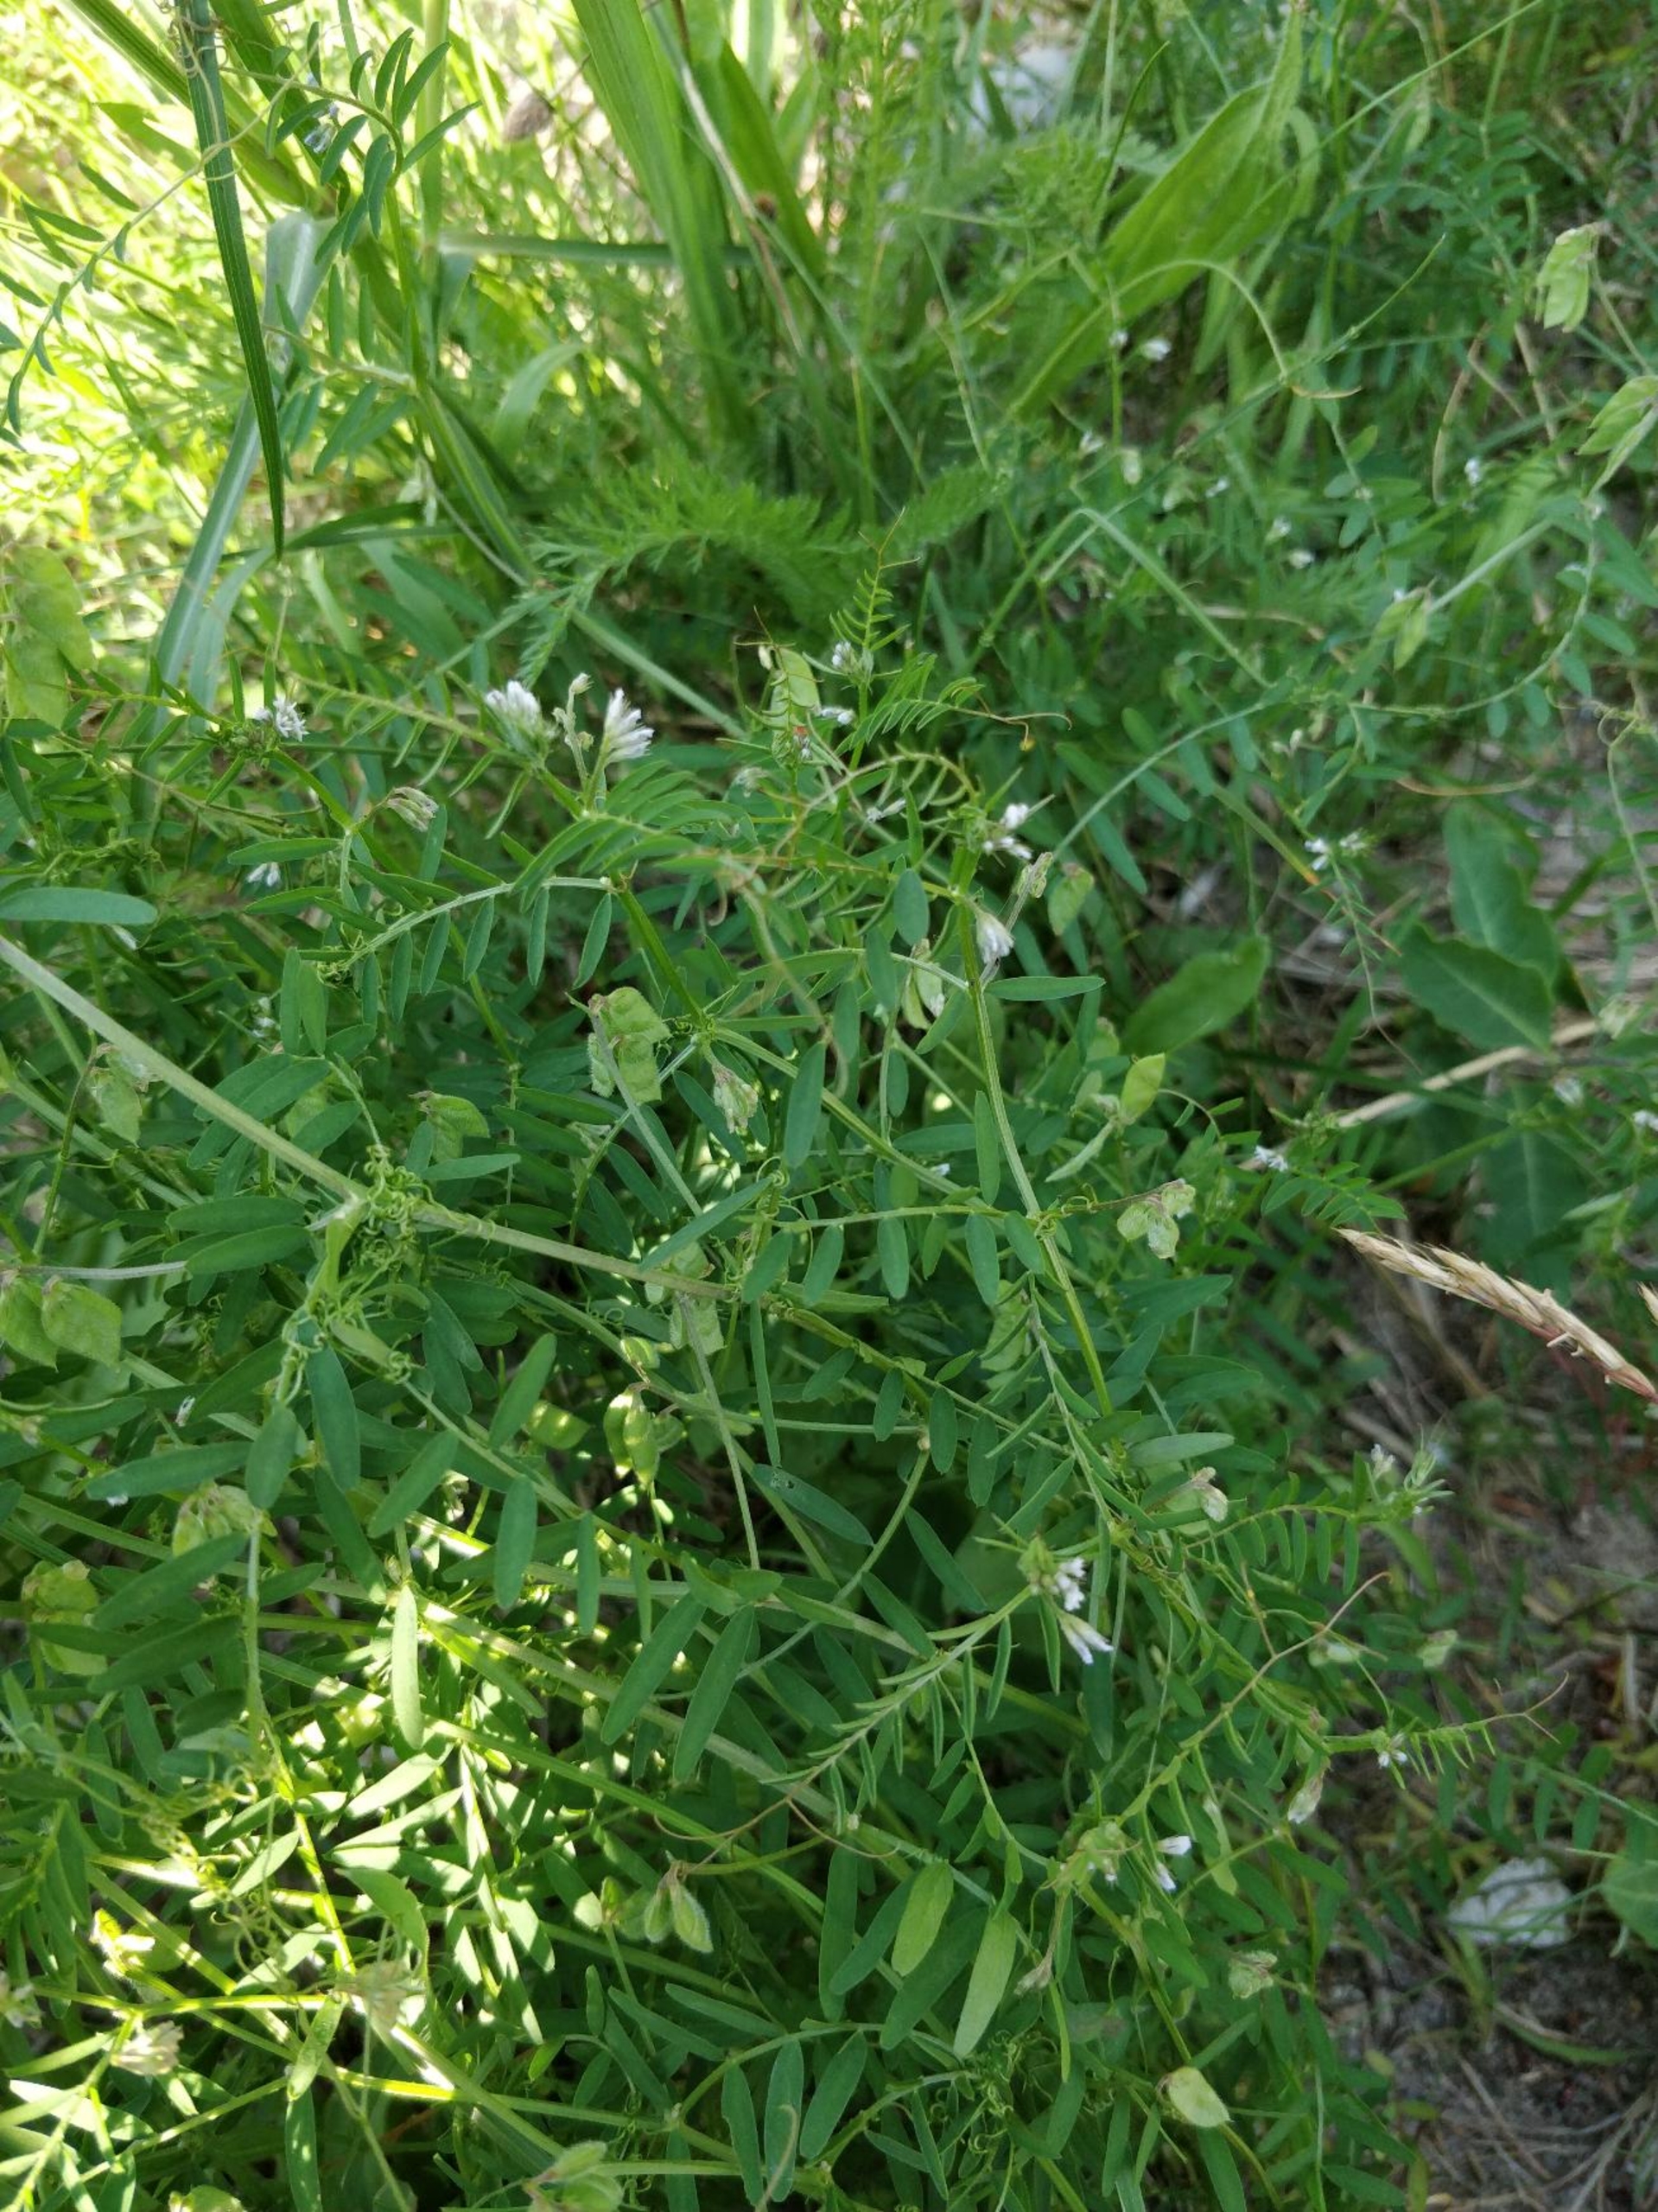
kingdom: Plantae
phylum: Tracheophyta
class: Magnoliopsida
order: Fabales
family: Fabaceae
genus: Vicia
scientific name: Vicia hirsuta
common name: Tofrøet vikke
